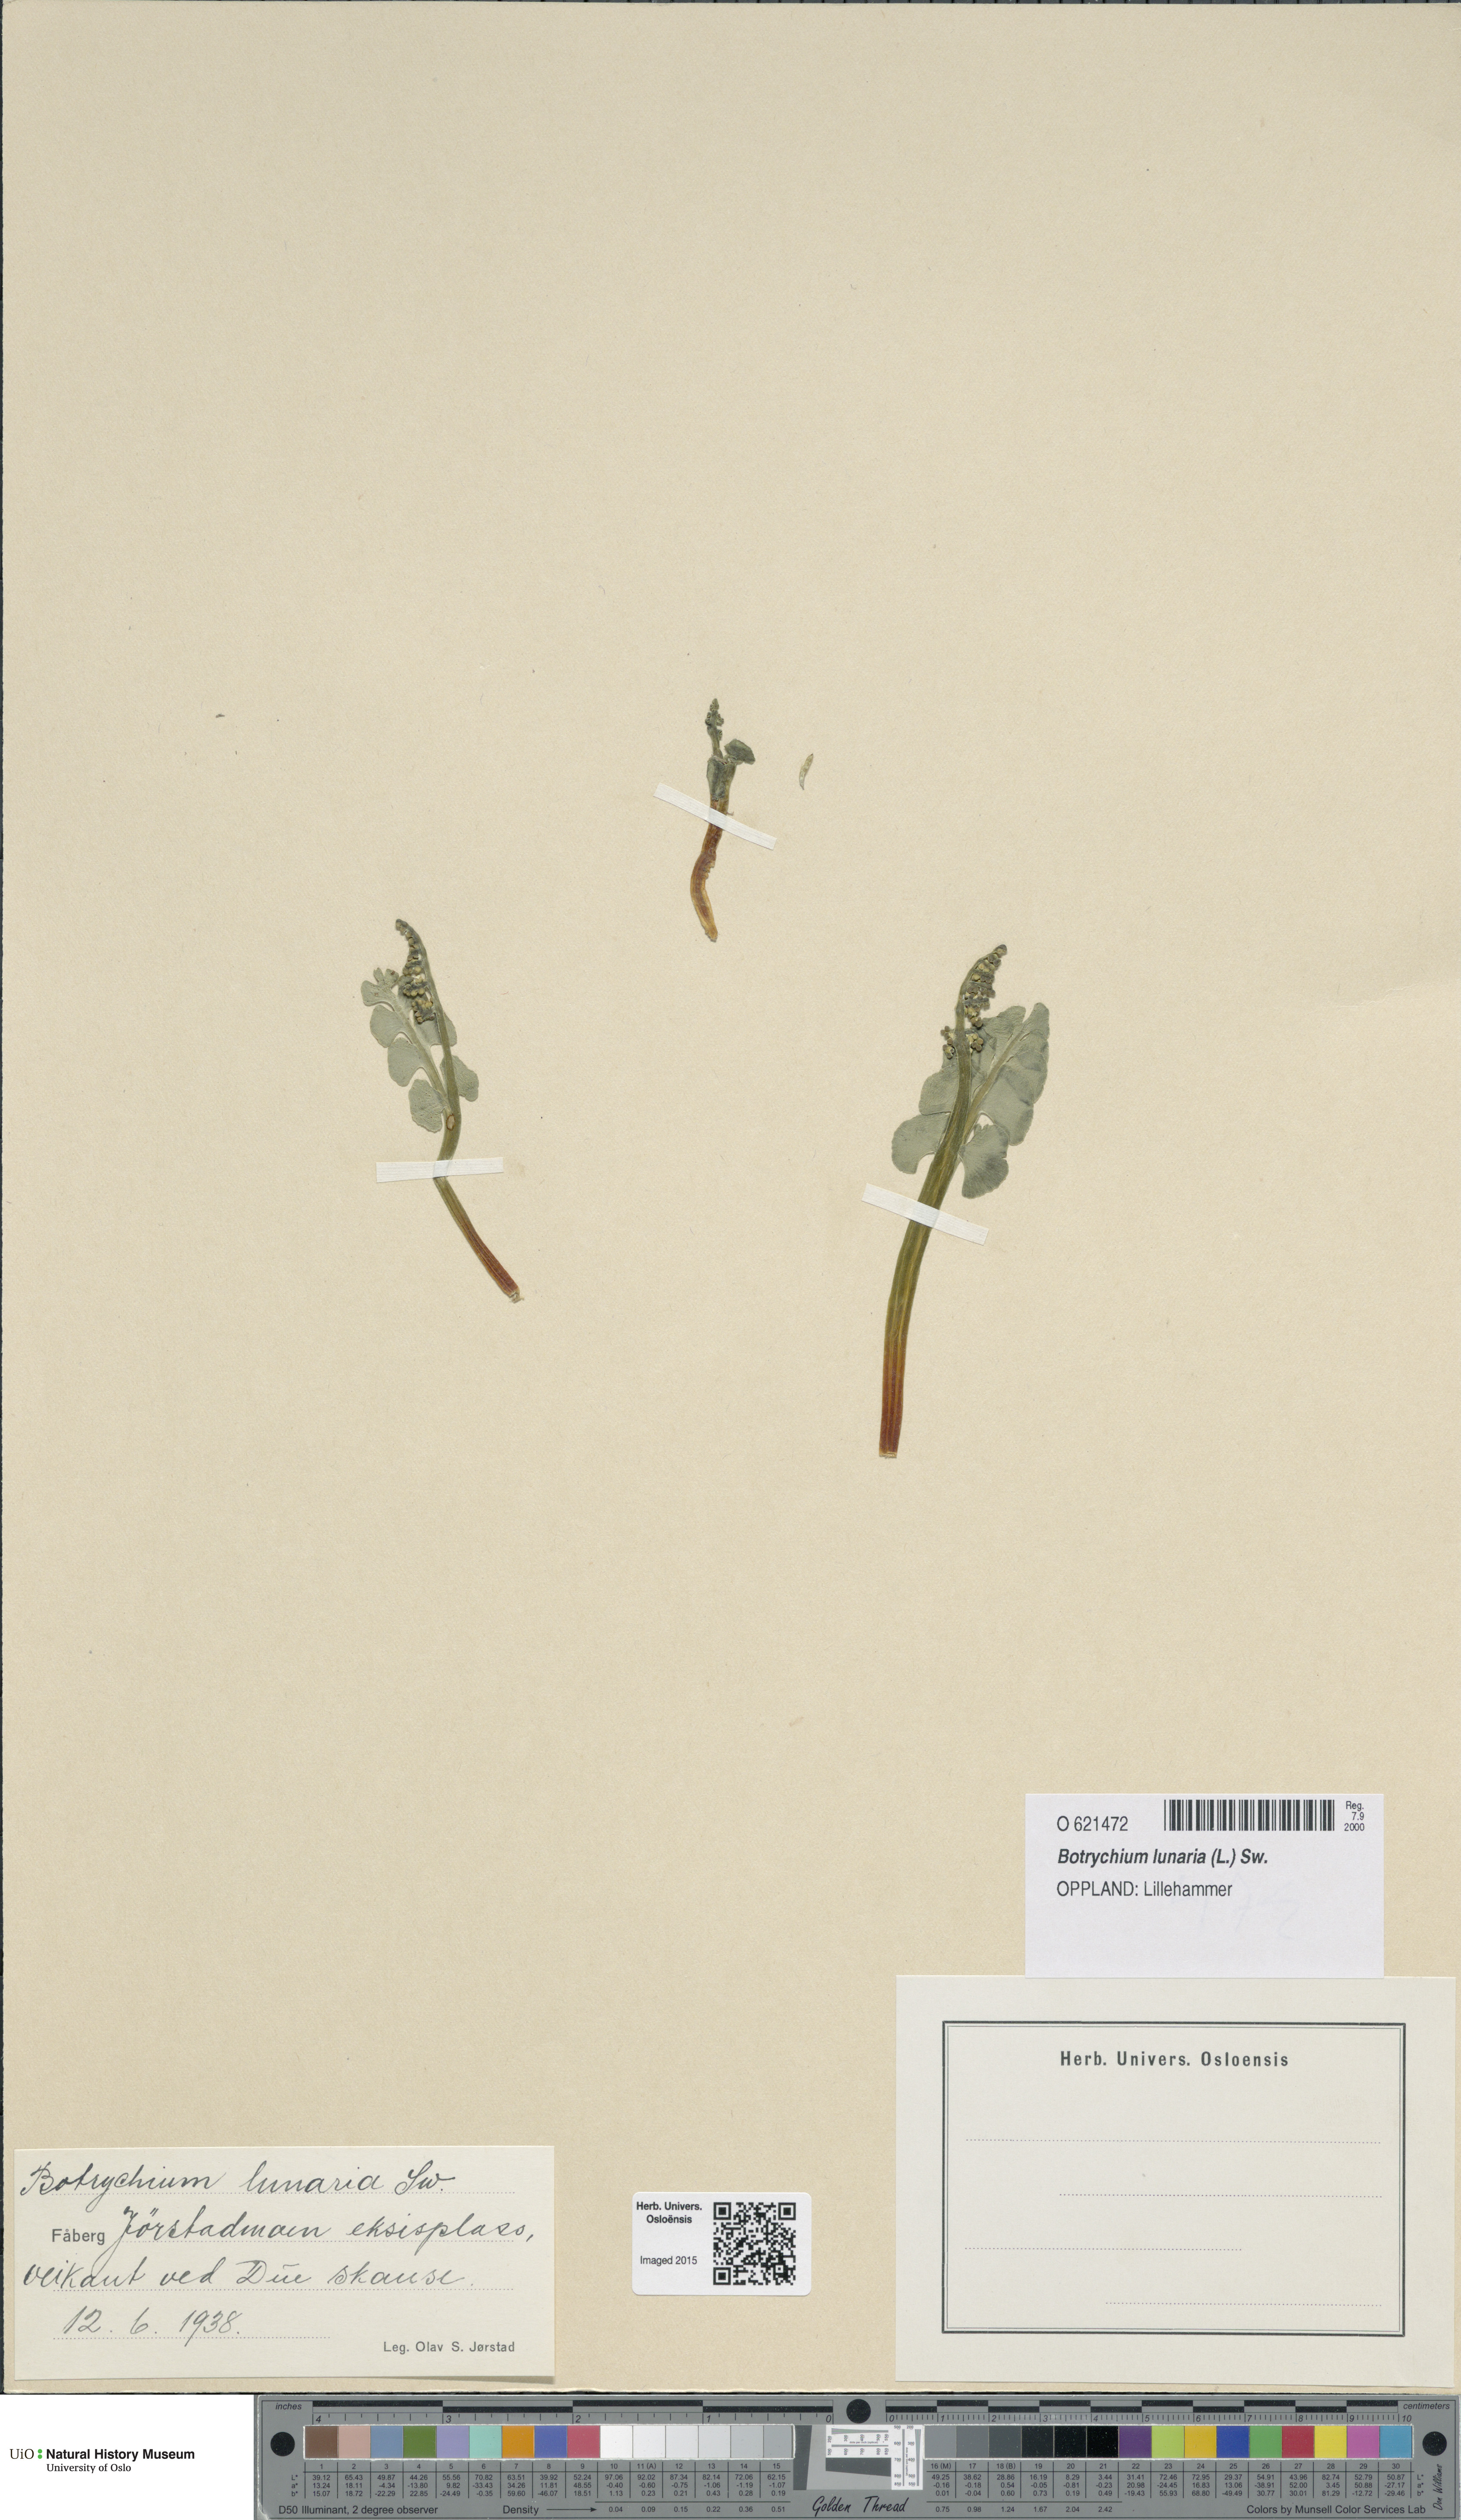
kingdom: Plantae
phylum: Tracheophyta
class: Polypodiopsida
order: Ophioglossales
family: Ophioglossaceae
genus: Botrychium
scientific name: Botrychium lunaria
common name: Moonwort
